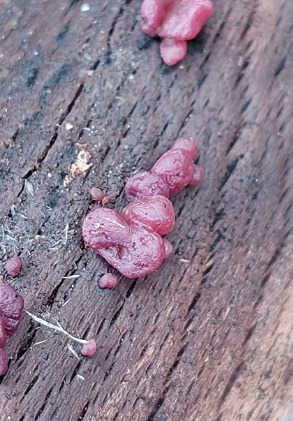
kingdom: Fungi
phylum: Ascomycota
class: Leotiomycetes
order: Helotiales
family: Gelatinodiscaceae
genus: Ascocoryne
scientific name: Ascocoryne sarcoides
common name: Rødlilla sejskive
